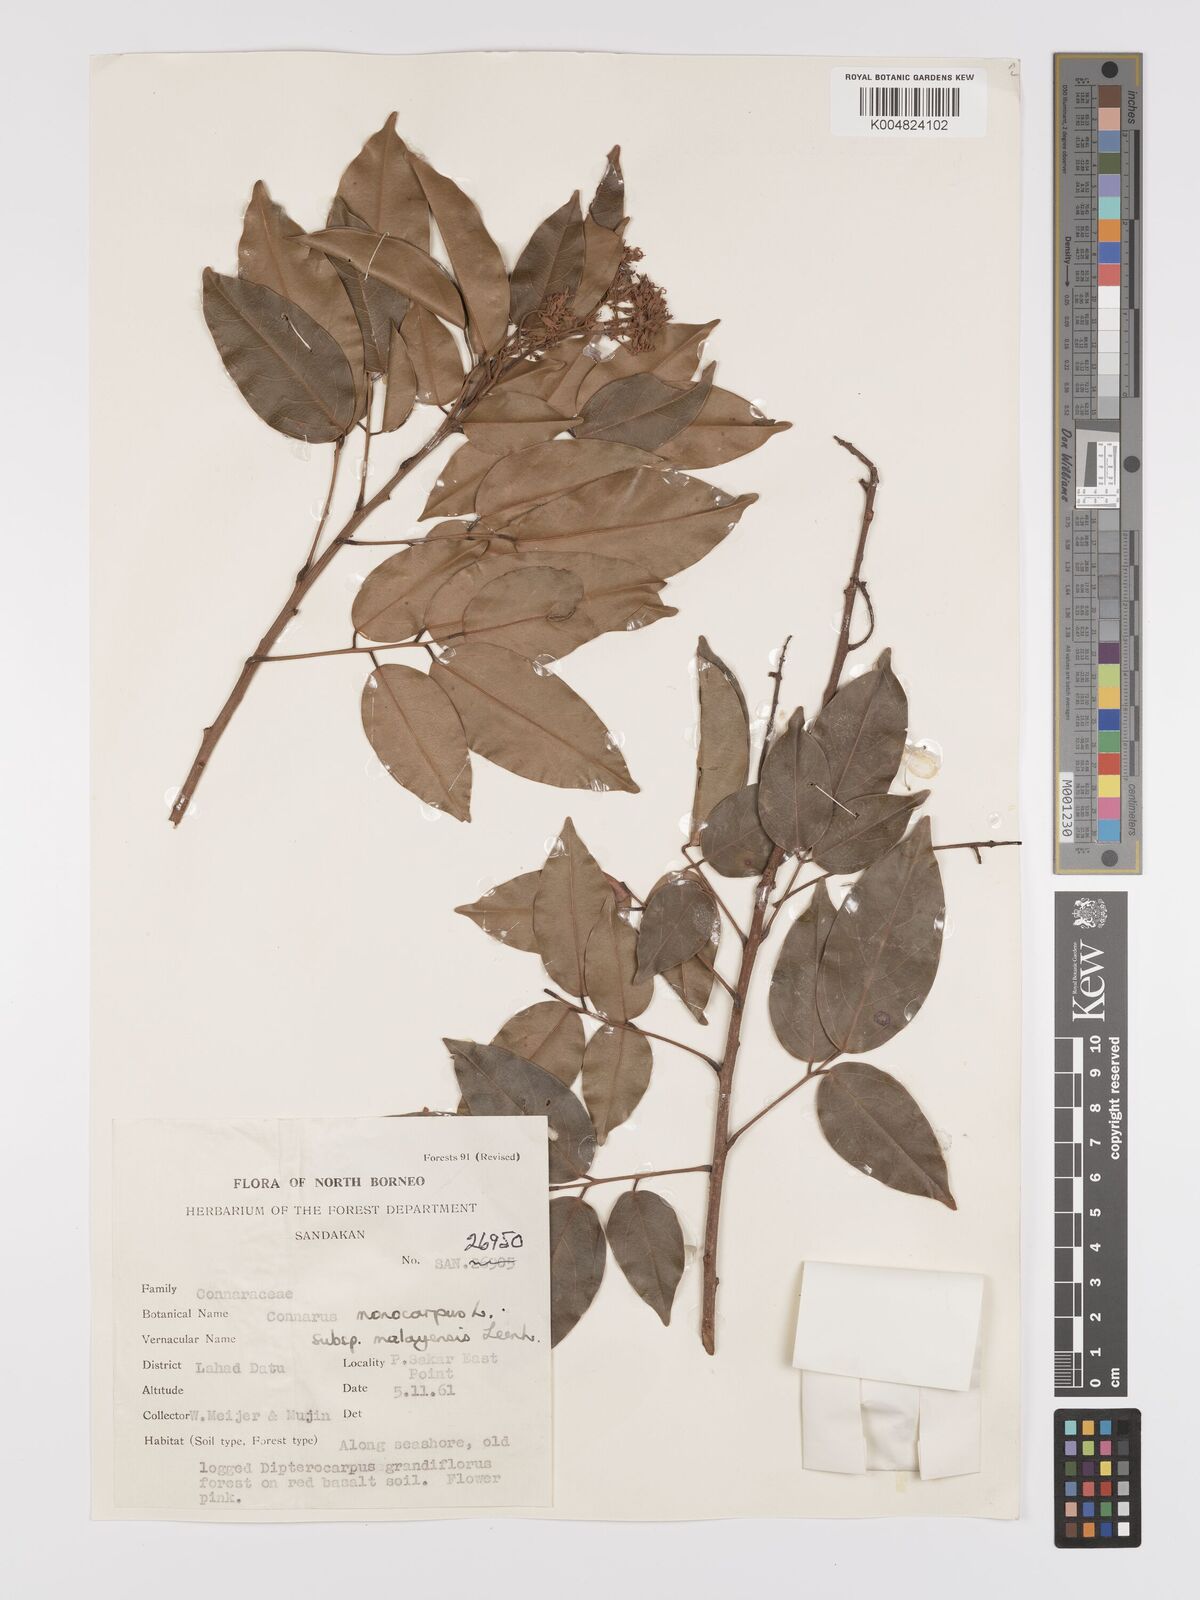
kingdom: Plantae
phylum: Tracheophyta
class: Magnoliopsida
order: Oxalidales
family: Connaraceae
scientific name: Connaraceae
